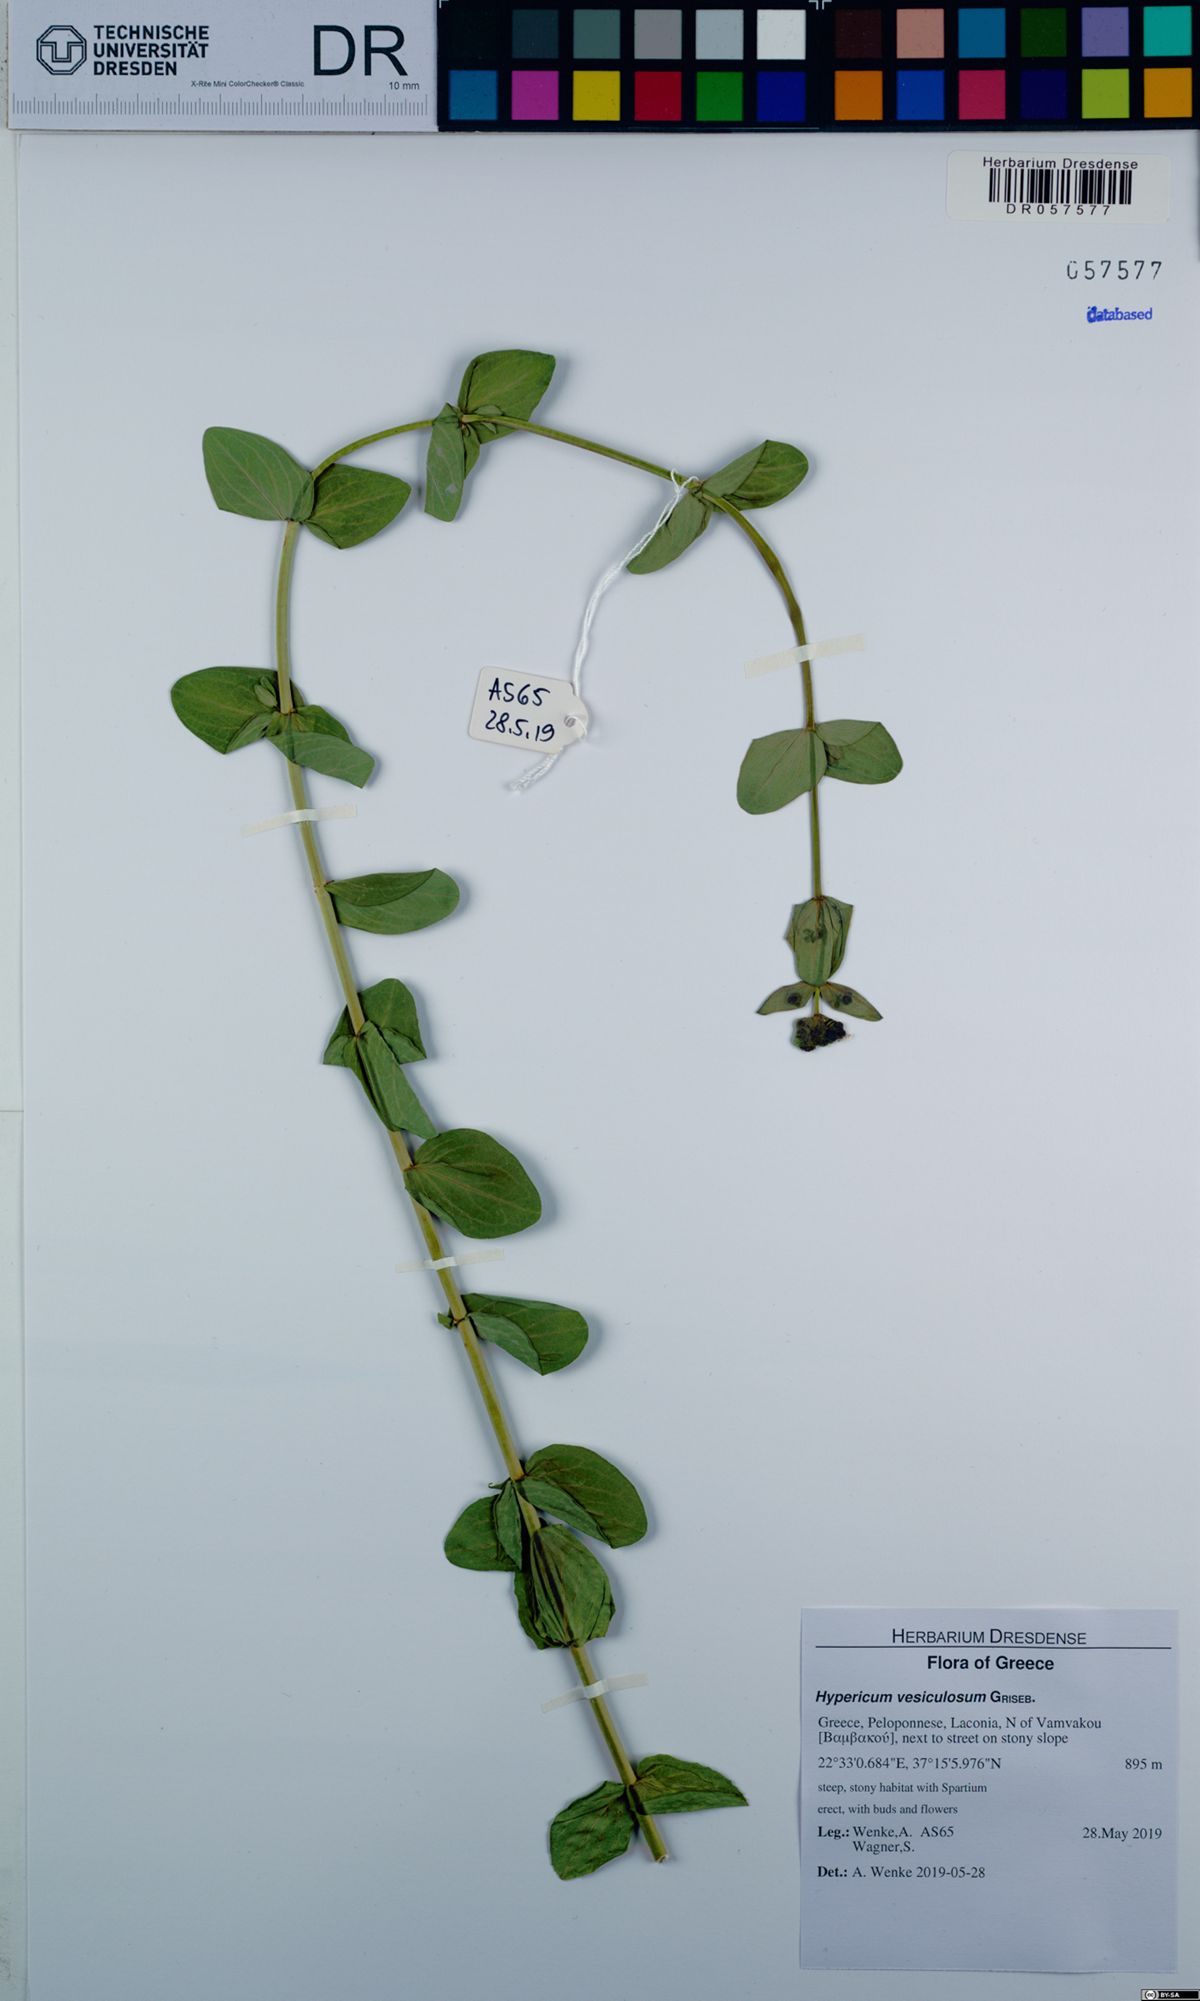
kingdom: Plantae
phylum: Tracheophyta
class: Magnoliopsida
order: Malpighiales
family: Hypericaceae
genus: Hypericum
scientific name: Hypericum vesiculosum
